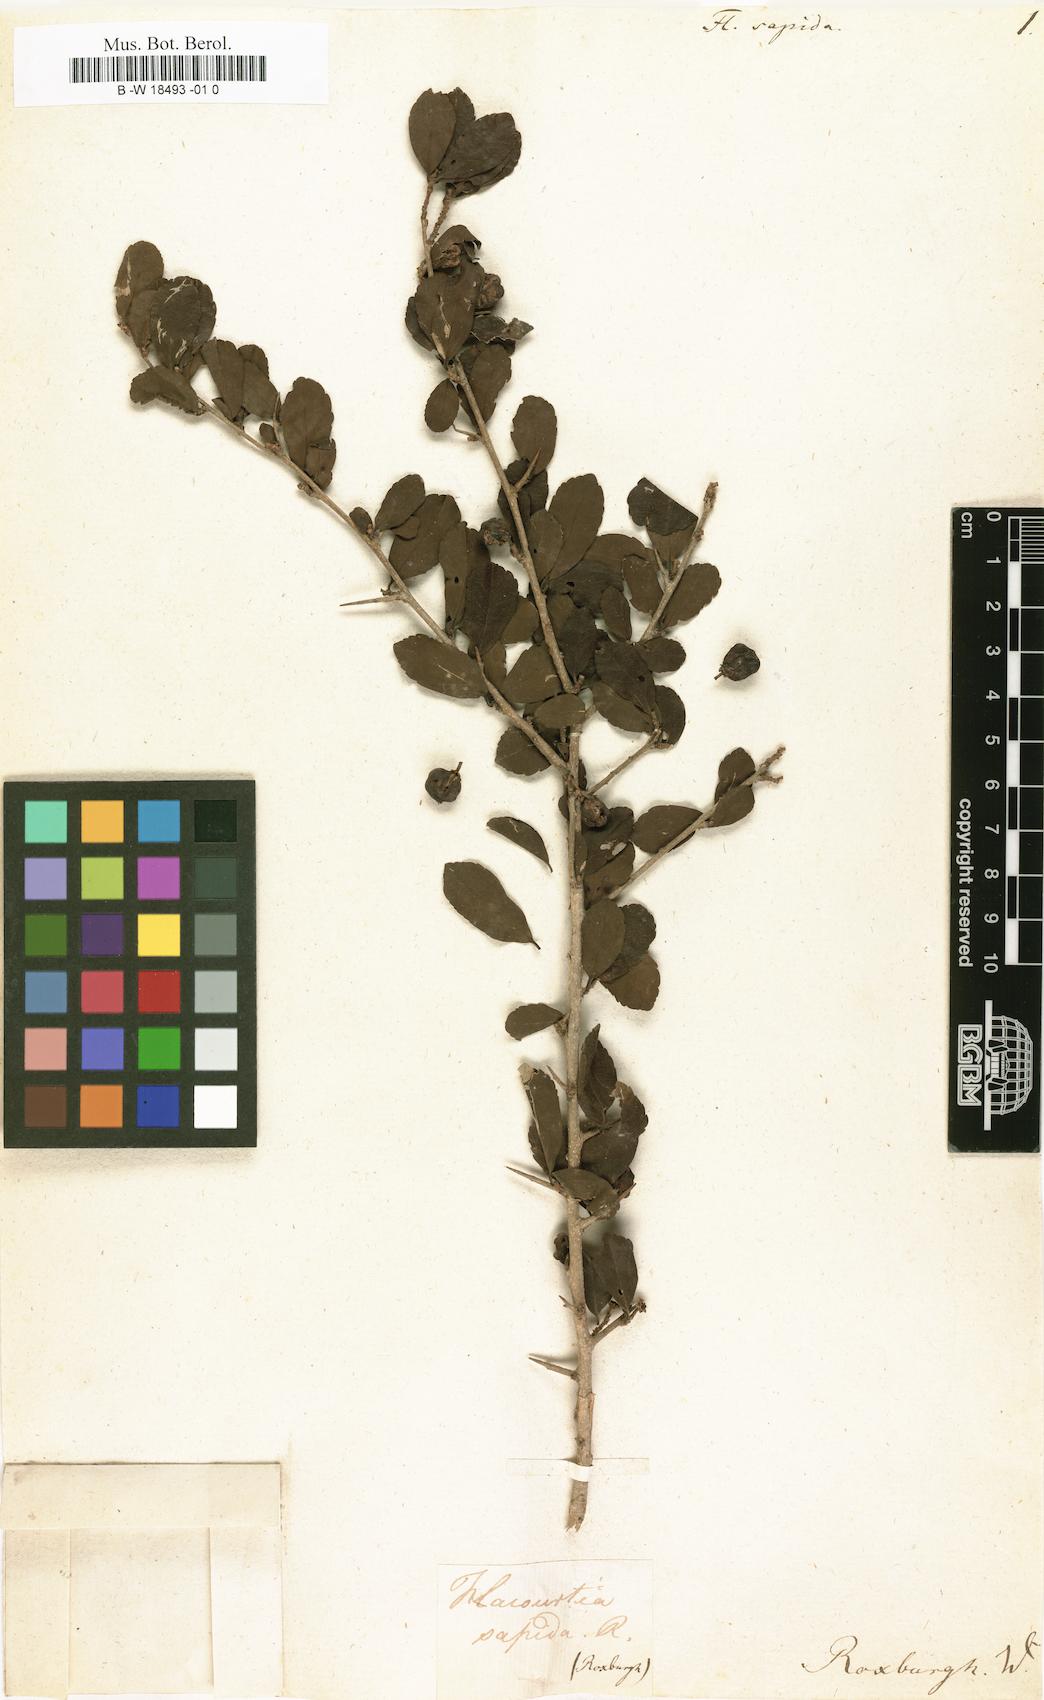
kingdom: Plantae
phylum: Tracheophyta
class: Magnoliopsida
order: Malpighiales
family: Salicaceae
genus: Flacourtia
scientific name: Flacourtia indica
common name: Governor's plum
